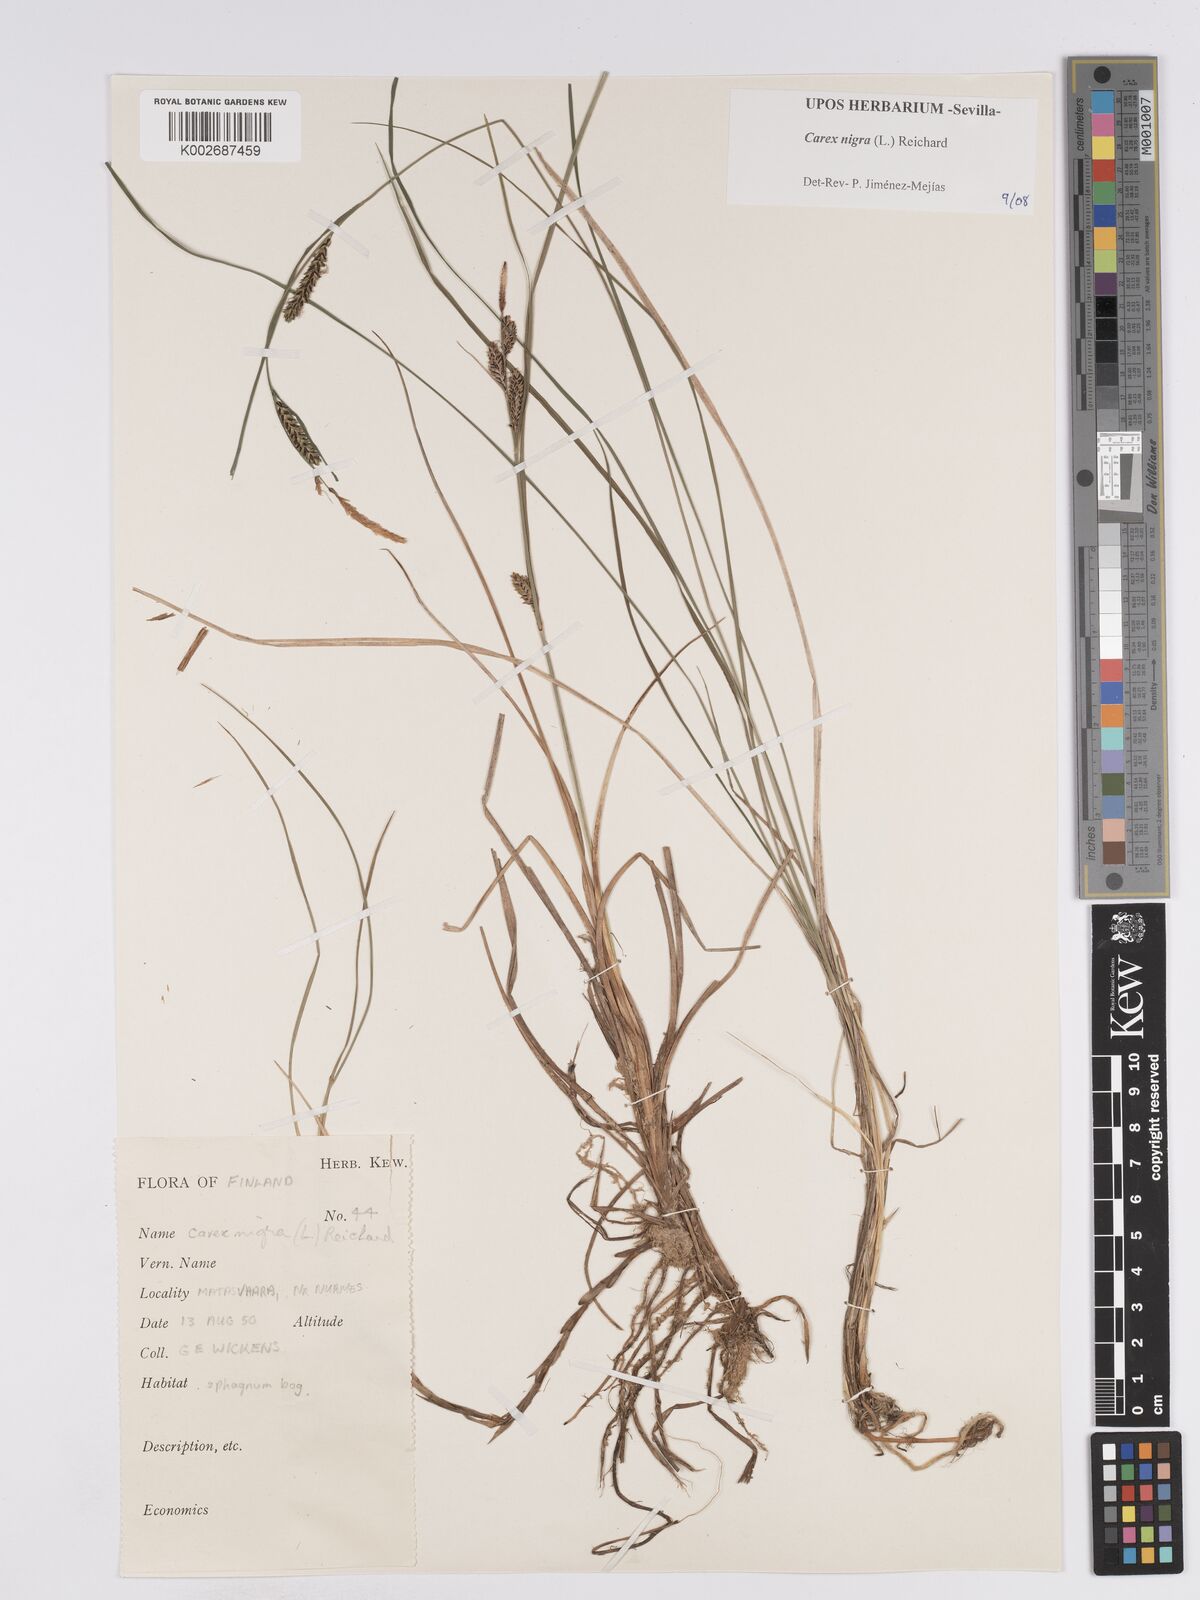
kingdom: Plantae
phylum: Tracheophyta
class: Liliopsida
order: Poales
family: Cyperaceae
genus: Carex
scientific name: Carex nigra
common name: Common sedge
